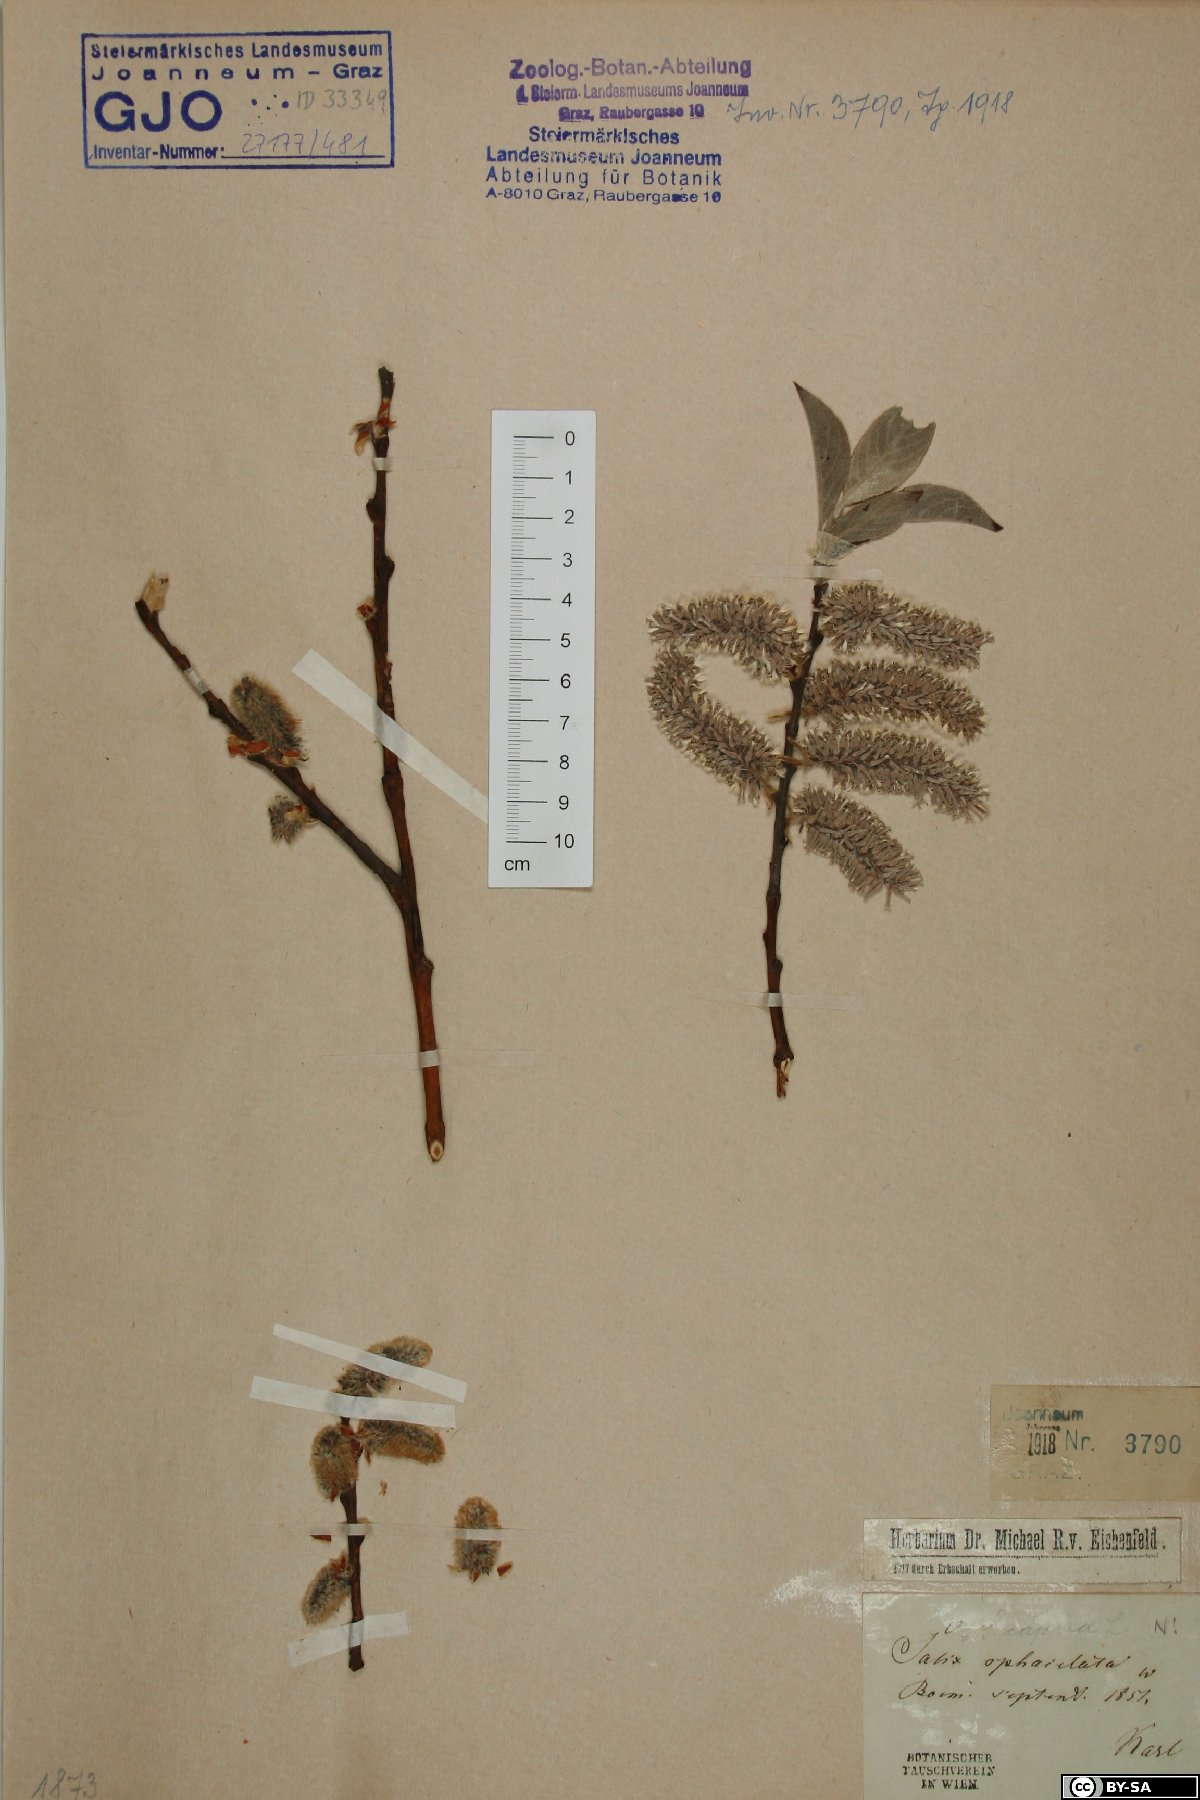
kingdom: Plantae
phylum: Tracheophyta
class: Magnoliopsida
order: Malpighiales
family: Salicaceae
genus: Salix
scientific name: Salix caprea
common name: Goat willow
